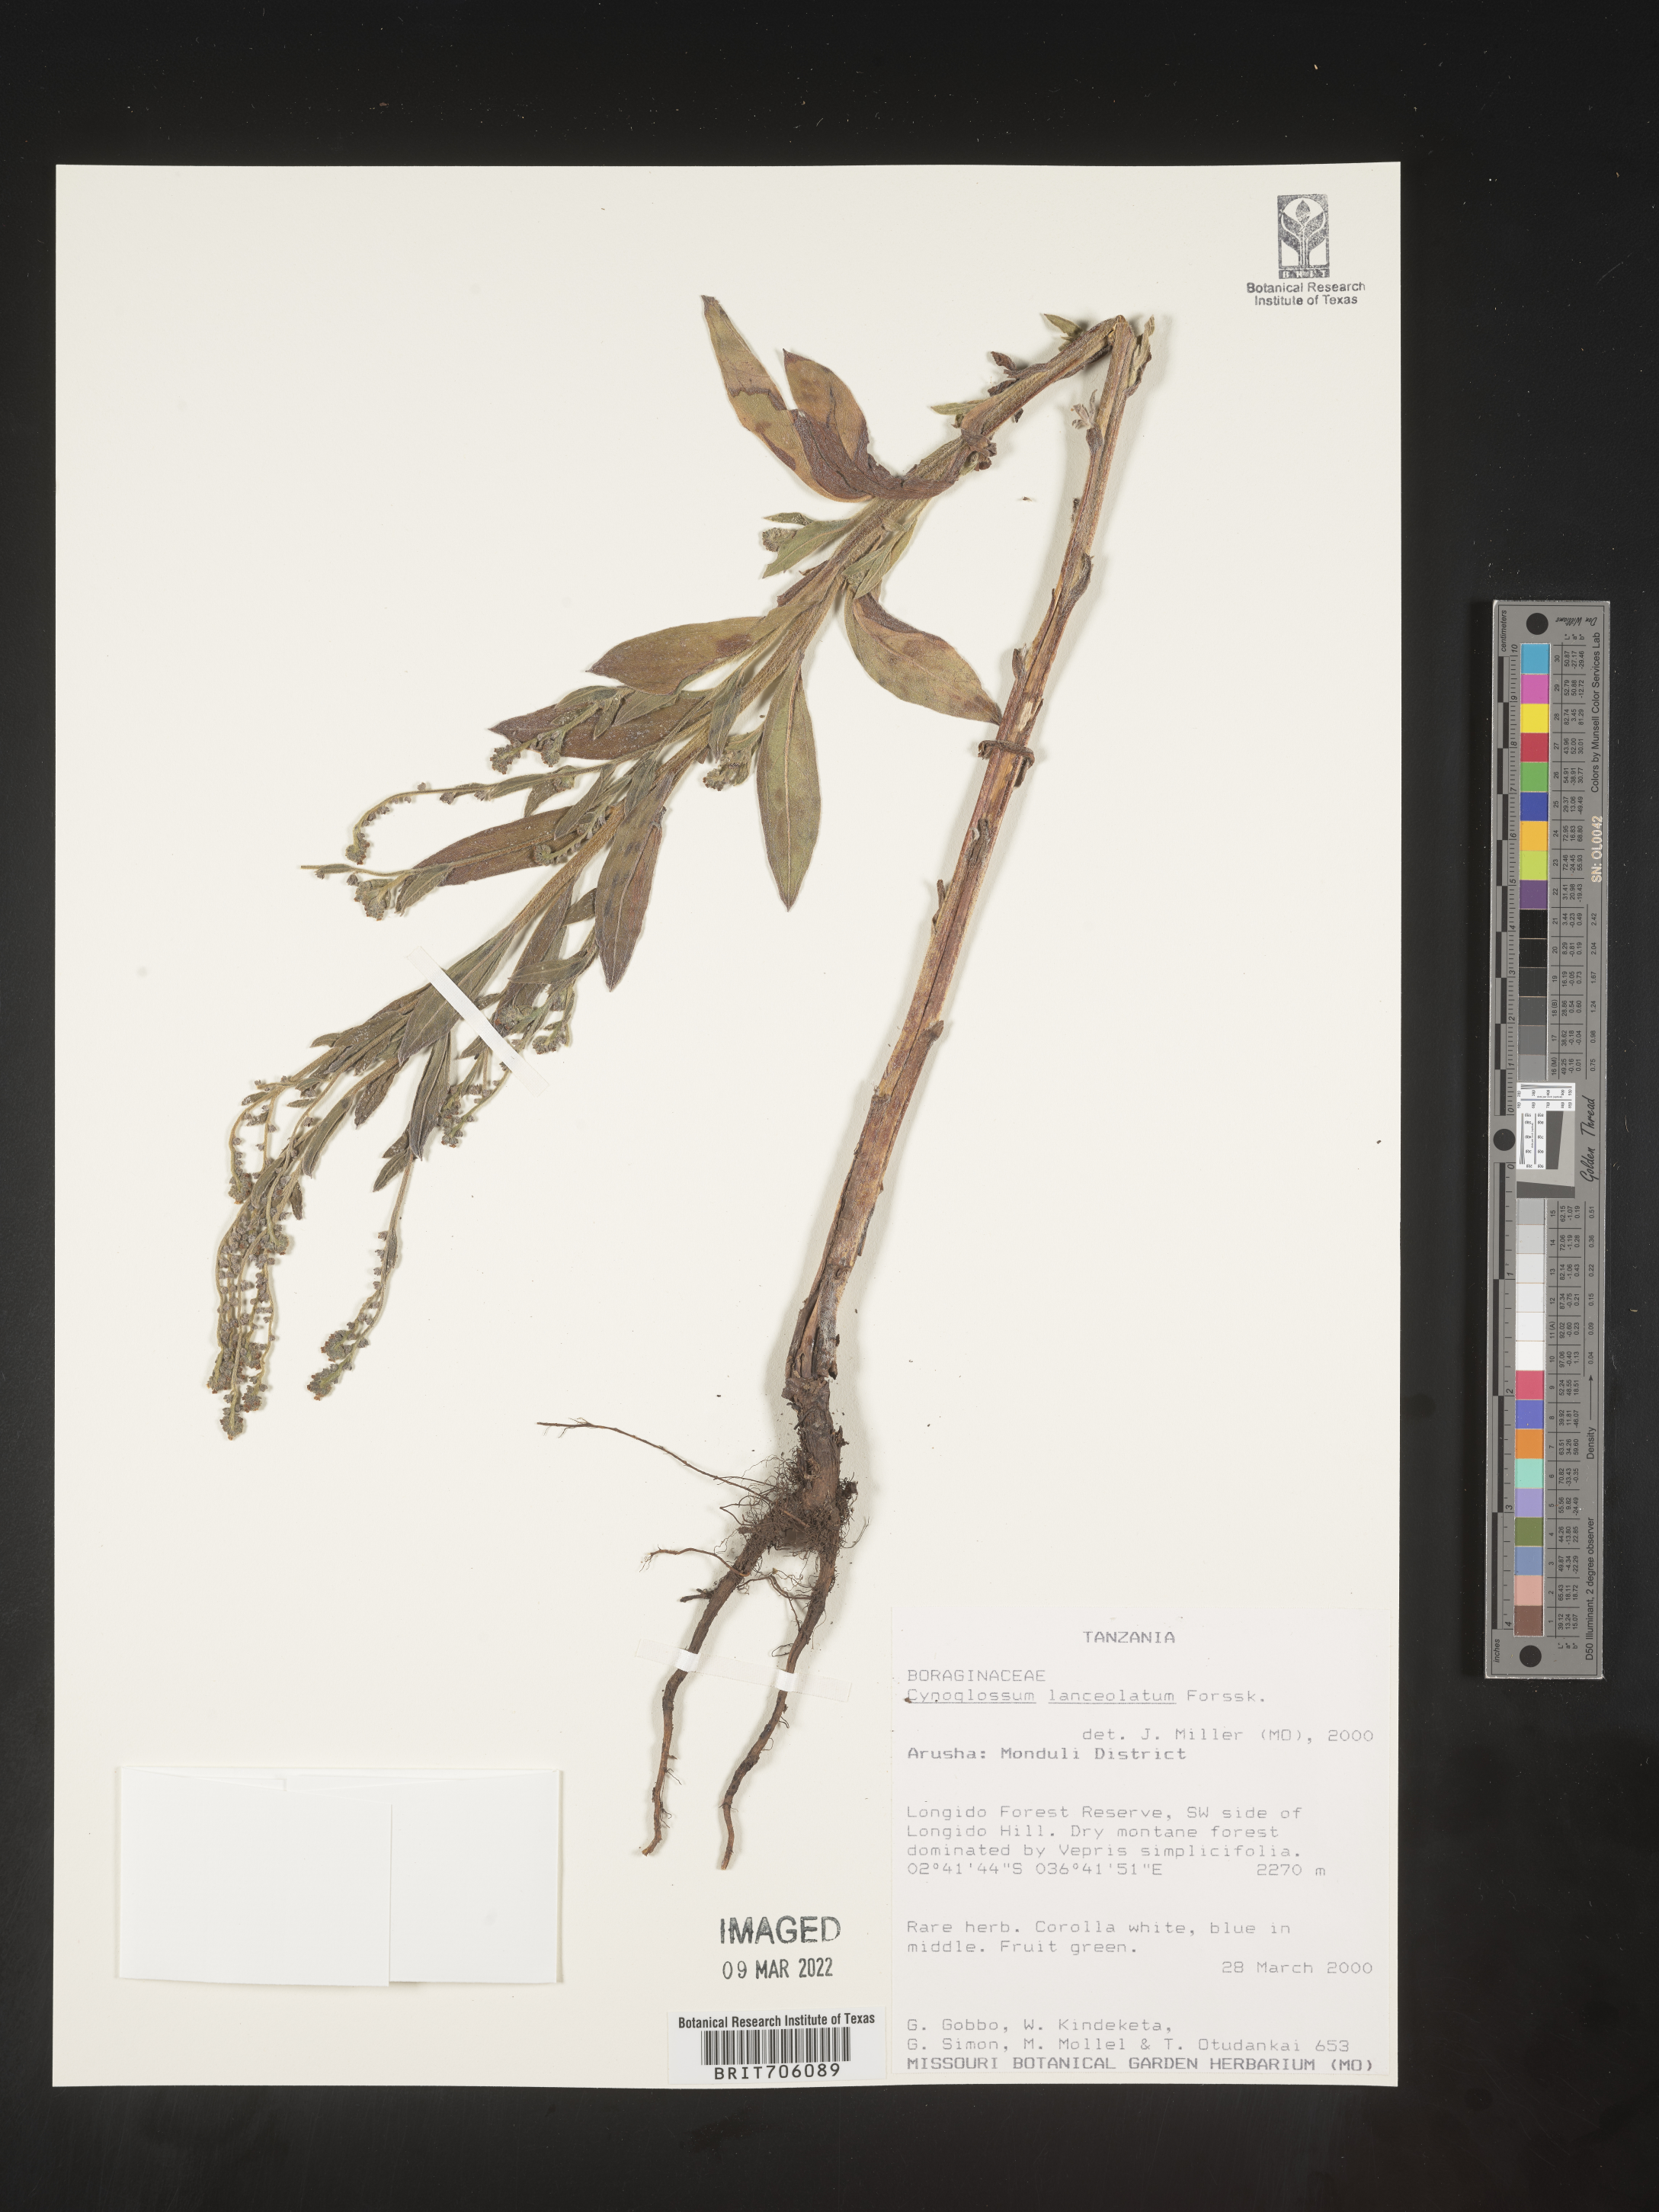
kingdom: Plantae
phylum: Tracheophyta
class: Magnoliopsida
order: Boraginales
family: Boraginaceae
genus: Cynoglossum
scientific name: Cynoglossum
